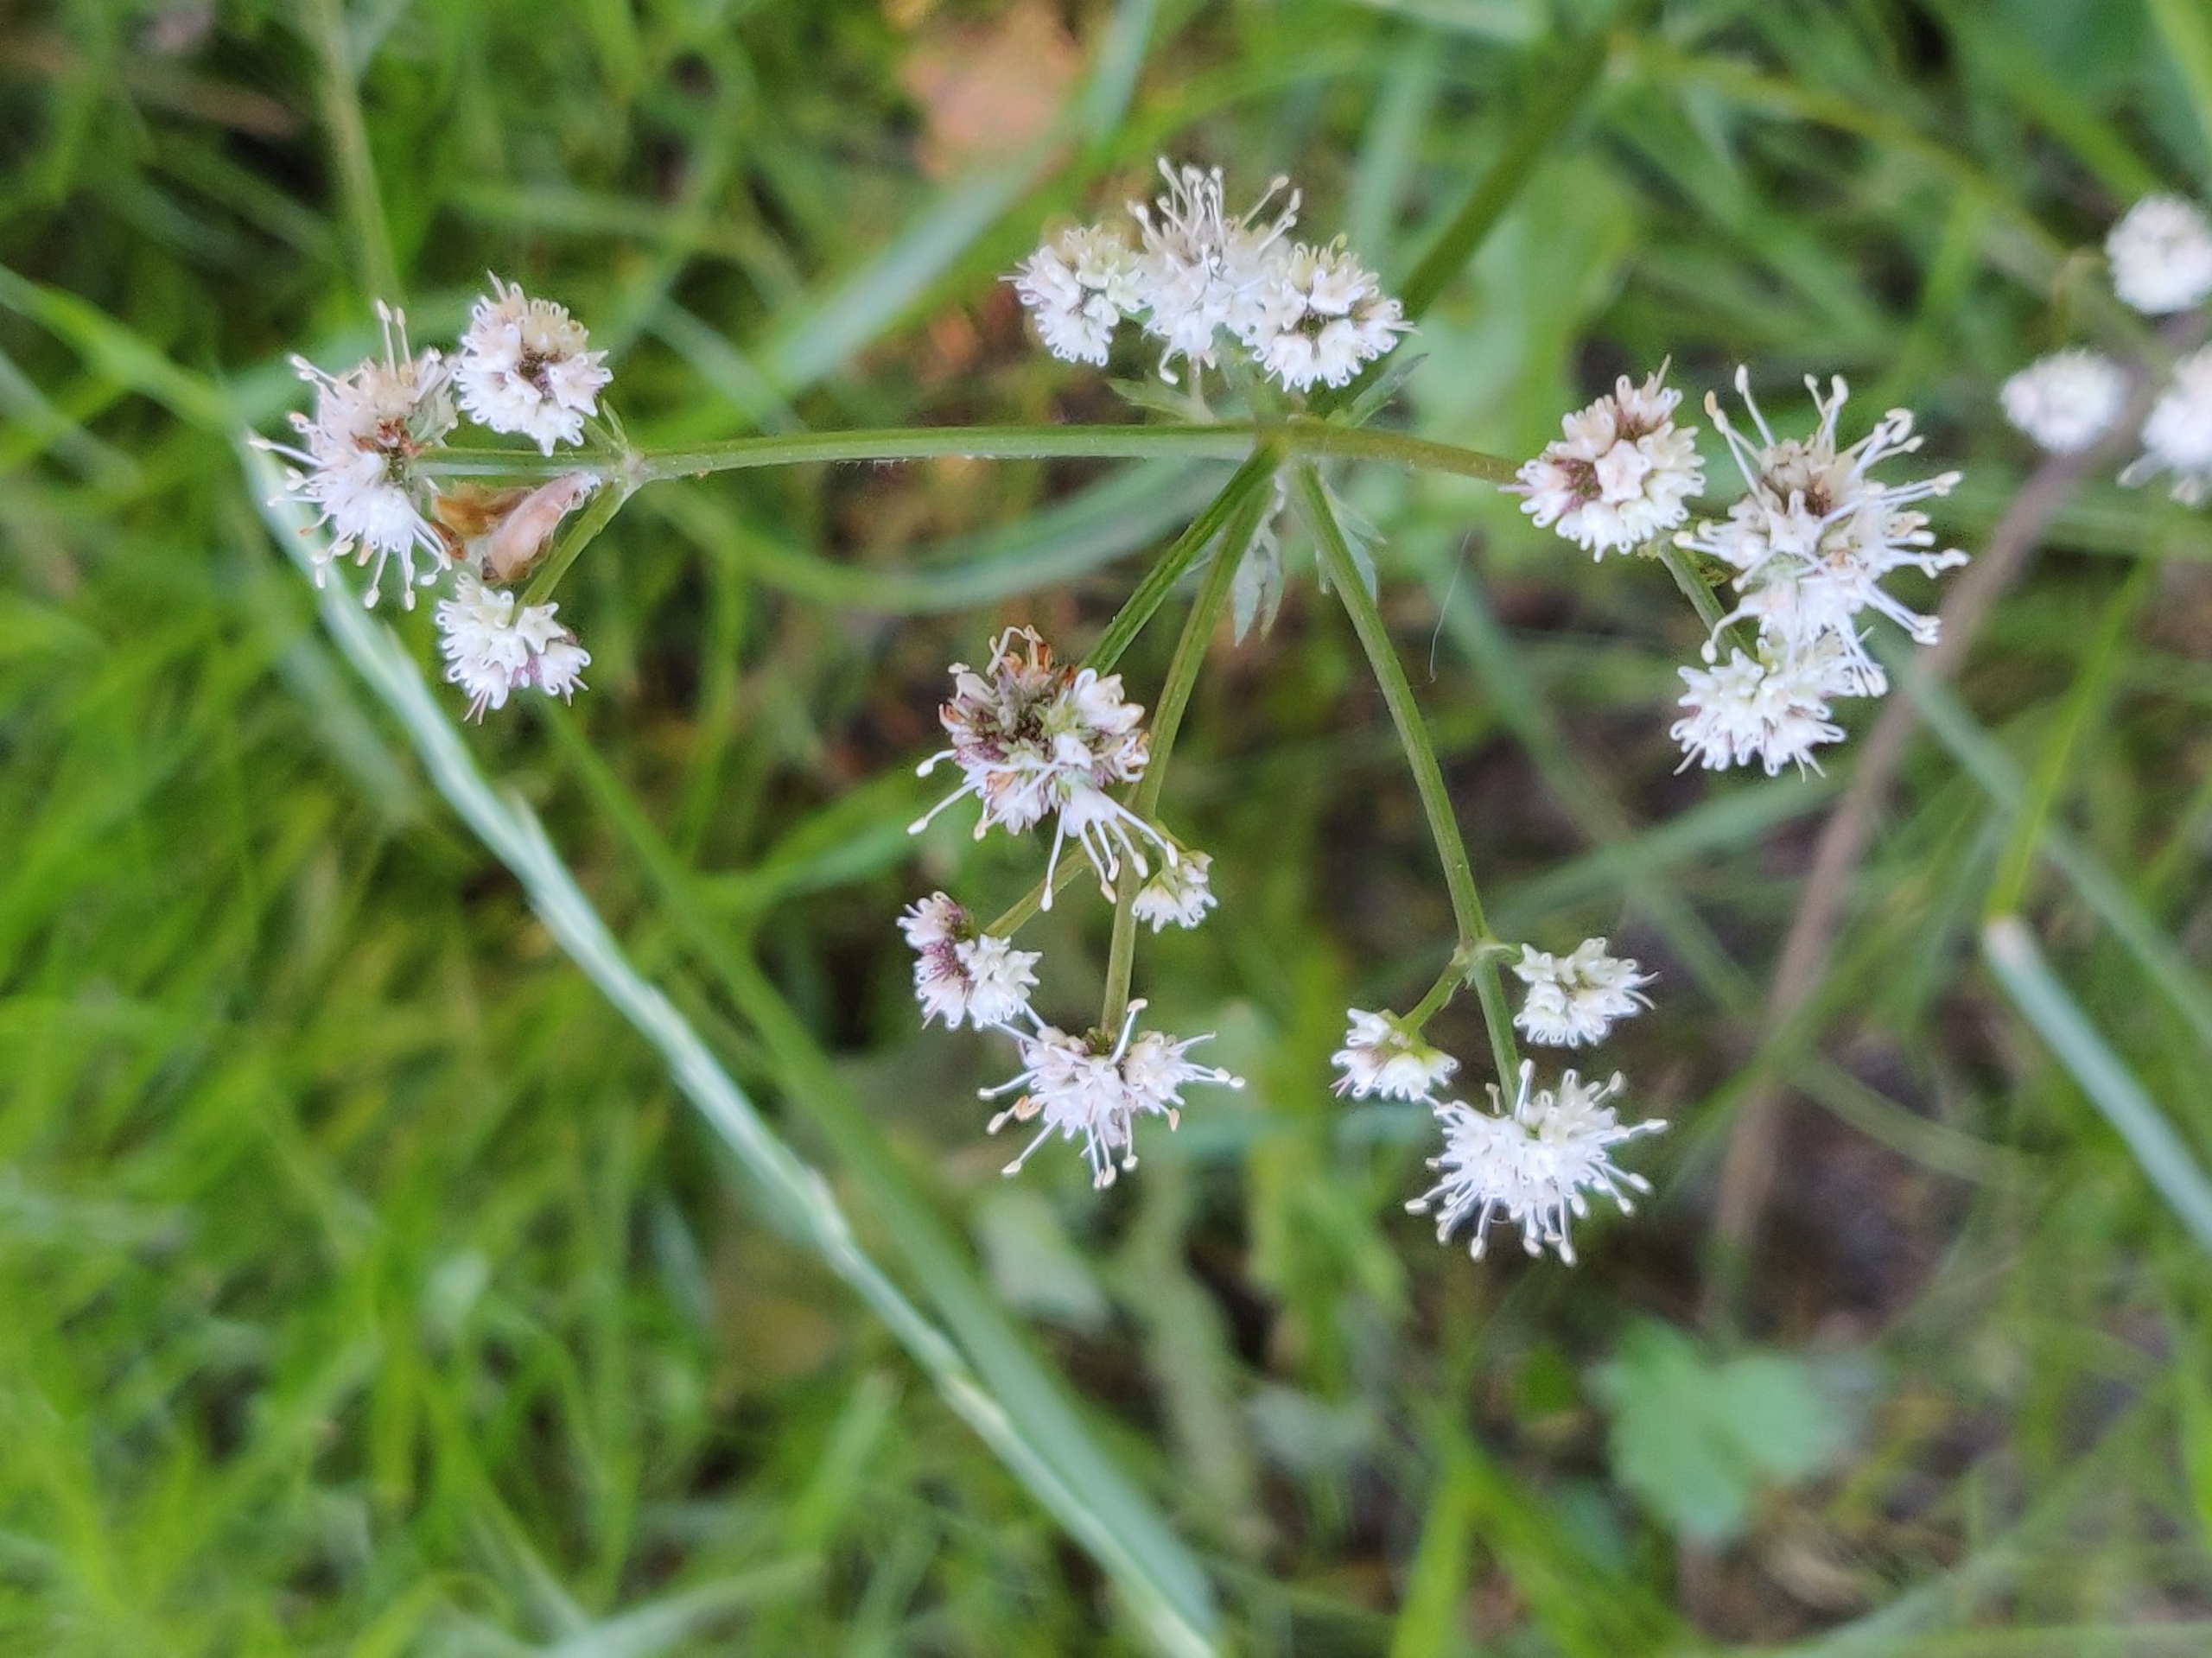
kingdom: Plantae
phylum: Tracheophyta
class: Magnoliopsida
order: Apiales
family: Apiaceae
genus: Sanicula
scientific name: Sanicula europaea
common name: Sanikel
